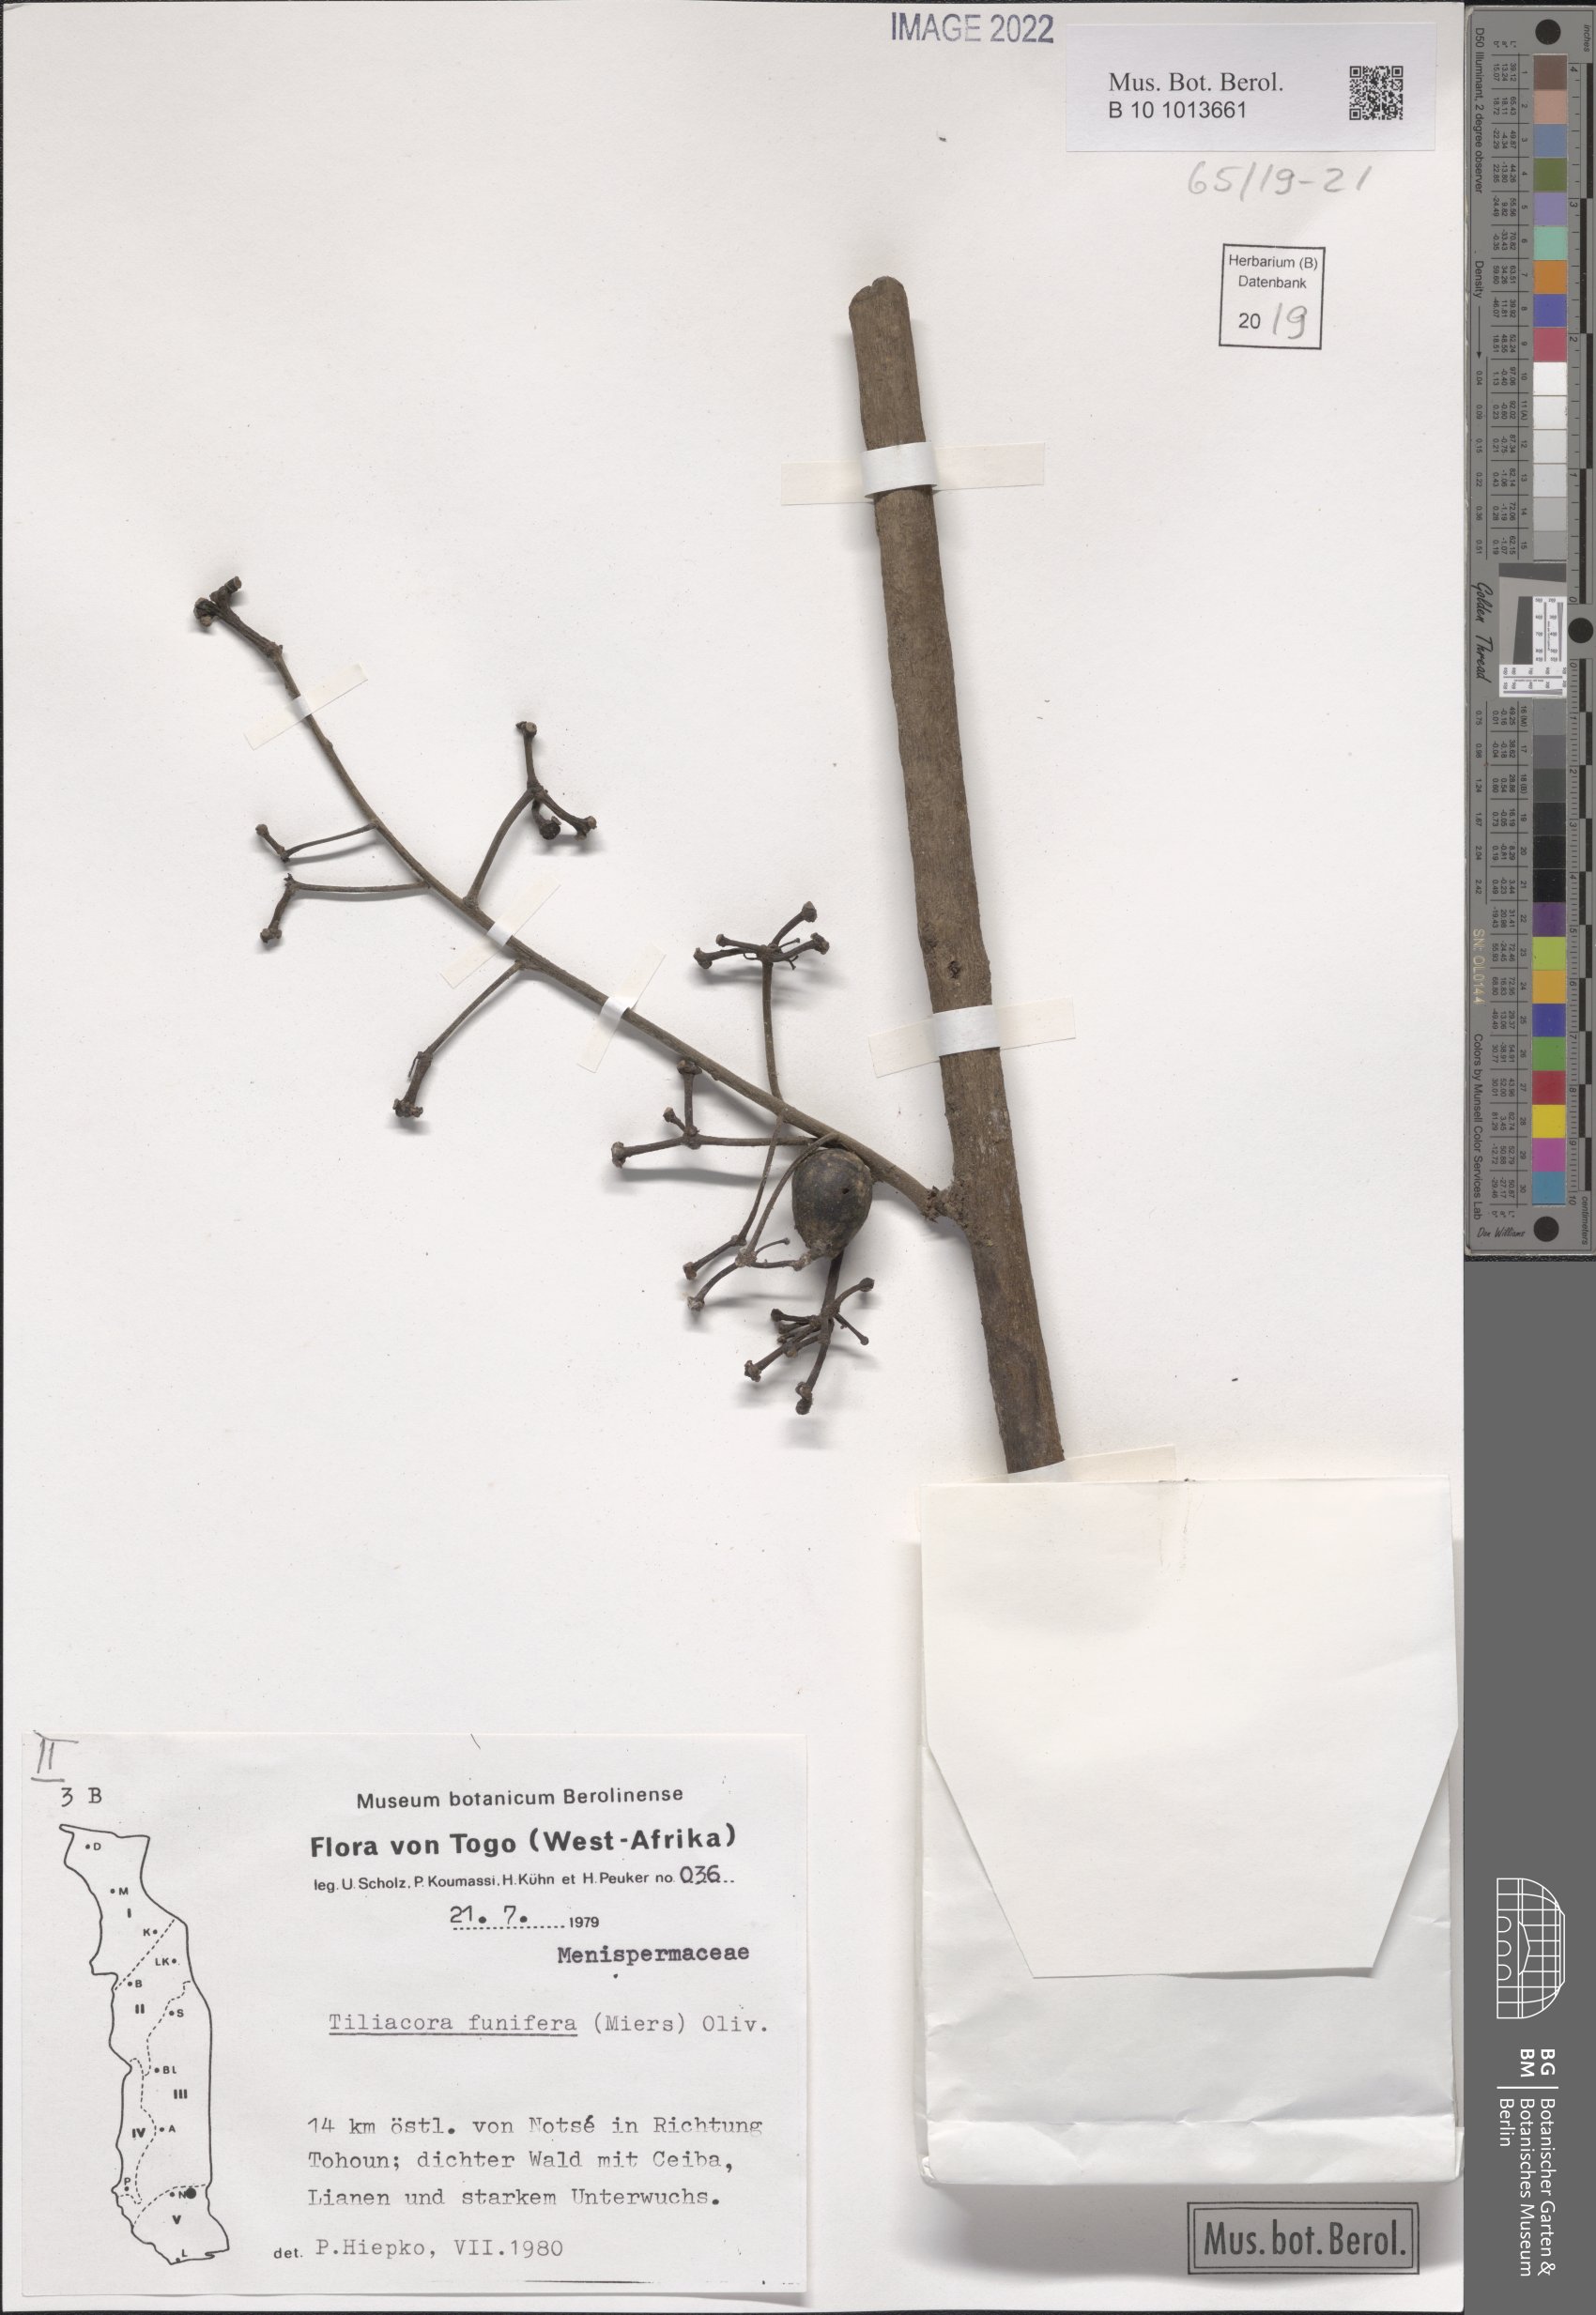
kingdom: Plantae
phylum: Tracheophyta
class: Magnoliopsida
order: Ranunculales
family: Menispermaceae
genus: Tiliacora
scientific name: Tiliacora funifera
